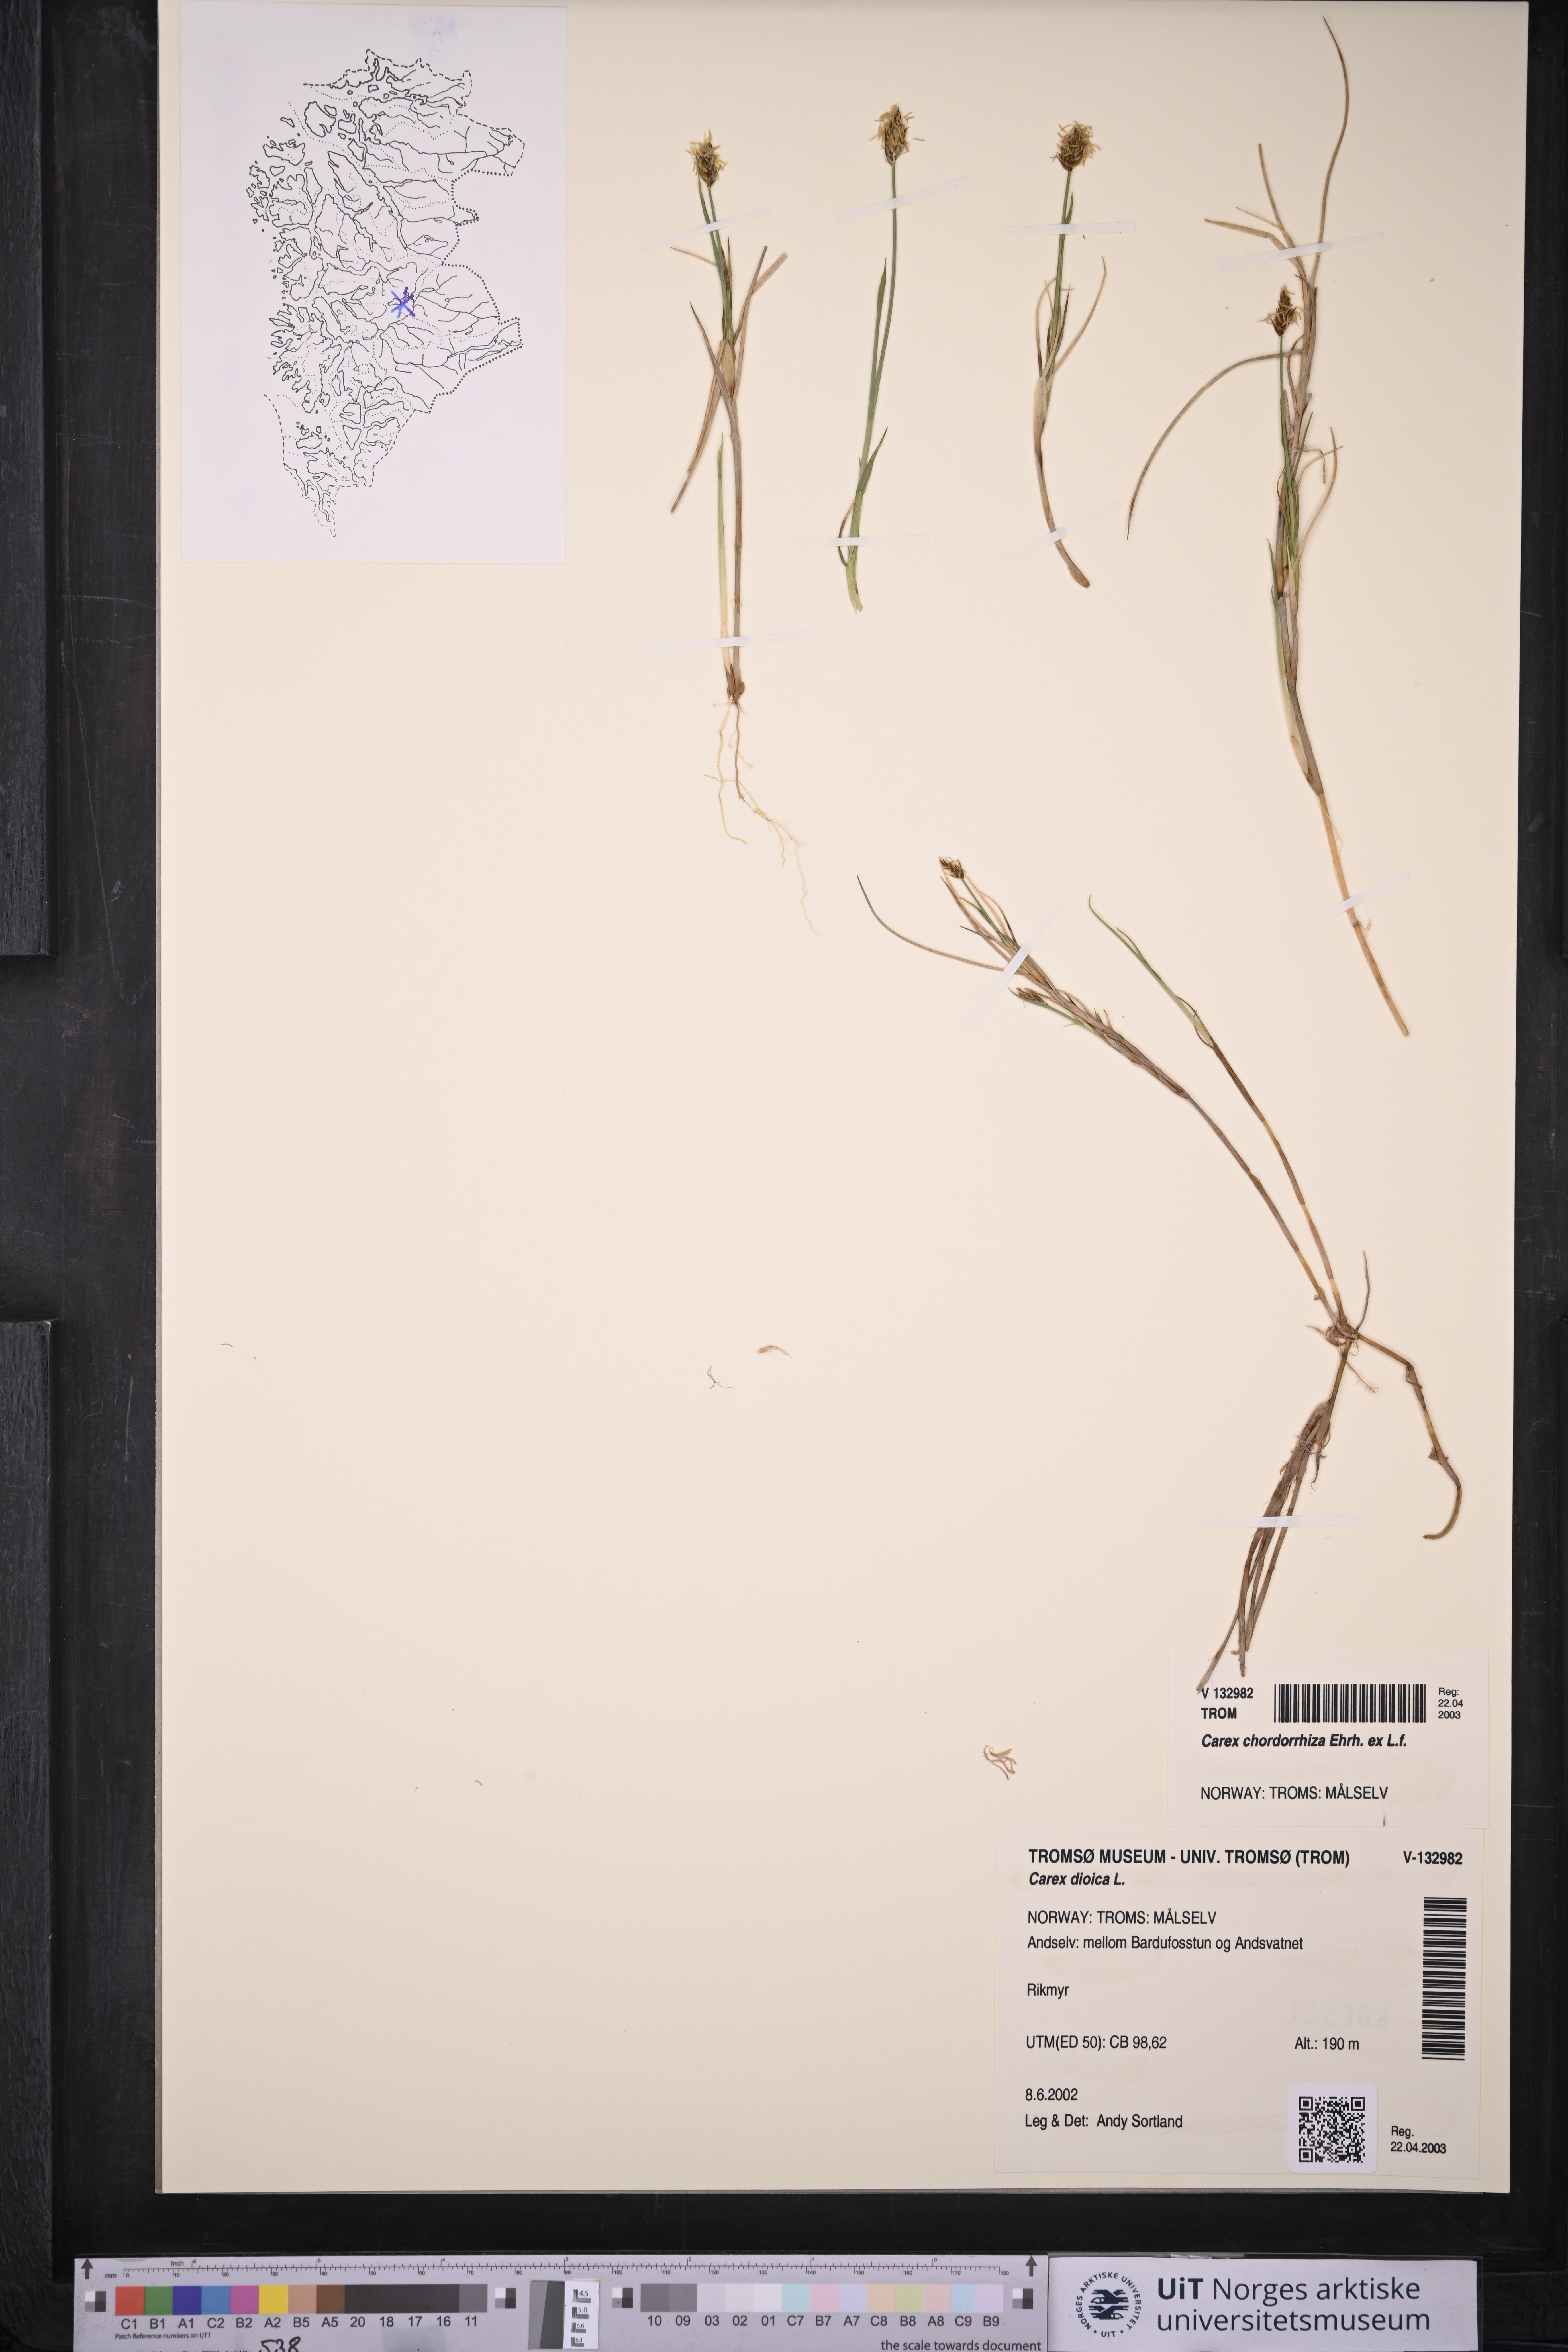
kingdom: Plantae
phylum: Tracheophyta
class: Liliopsida
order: Poales
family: Cyperaceae
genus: Carex
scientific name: Carex chordorrhiza
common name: String sedge
